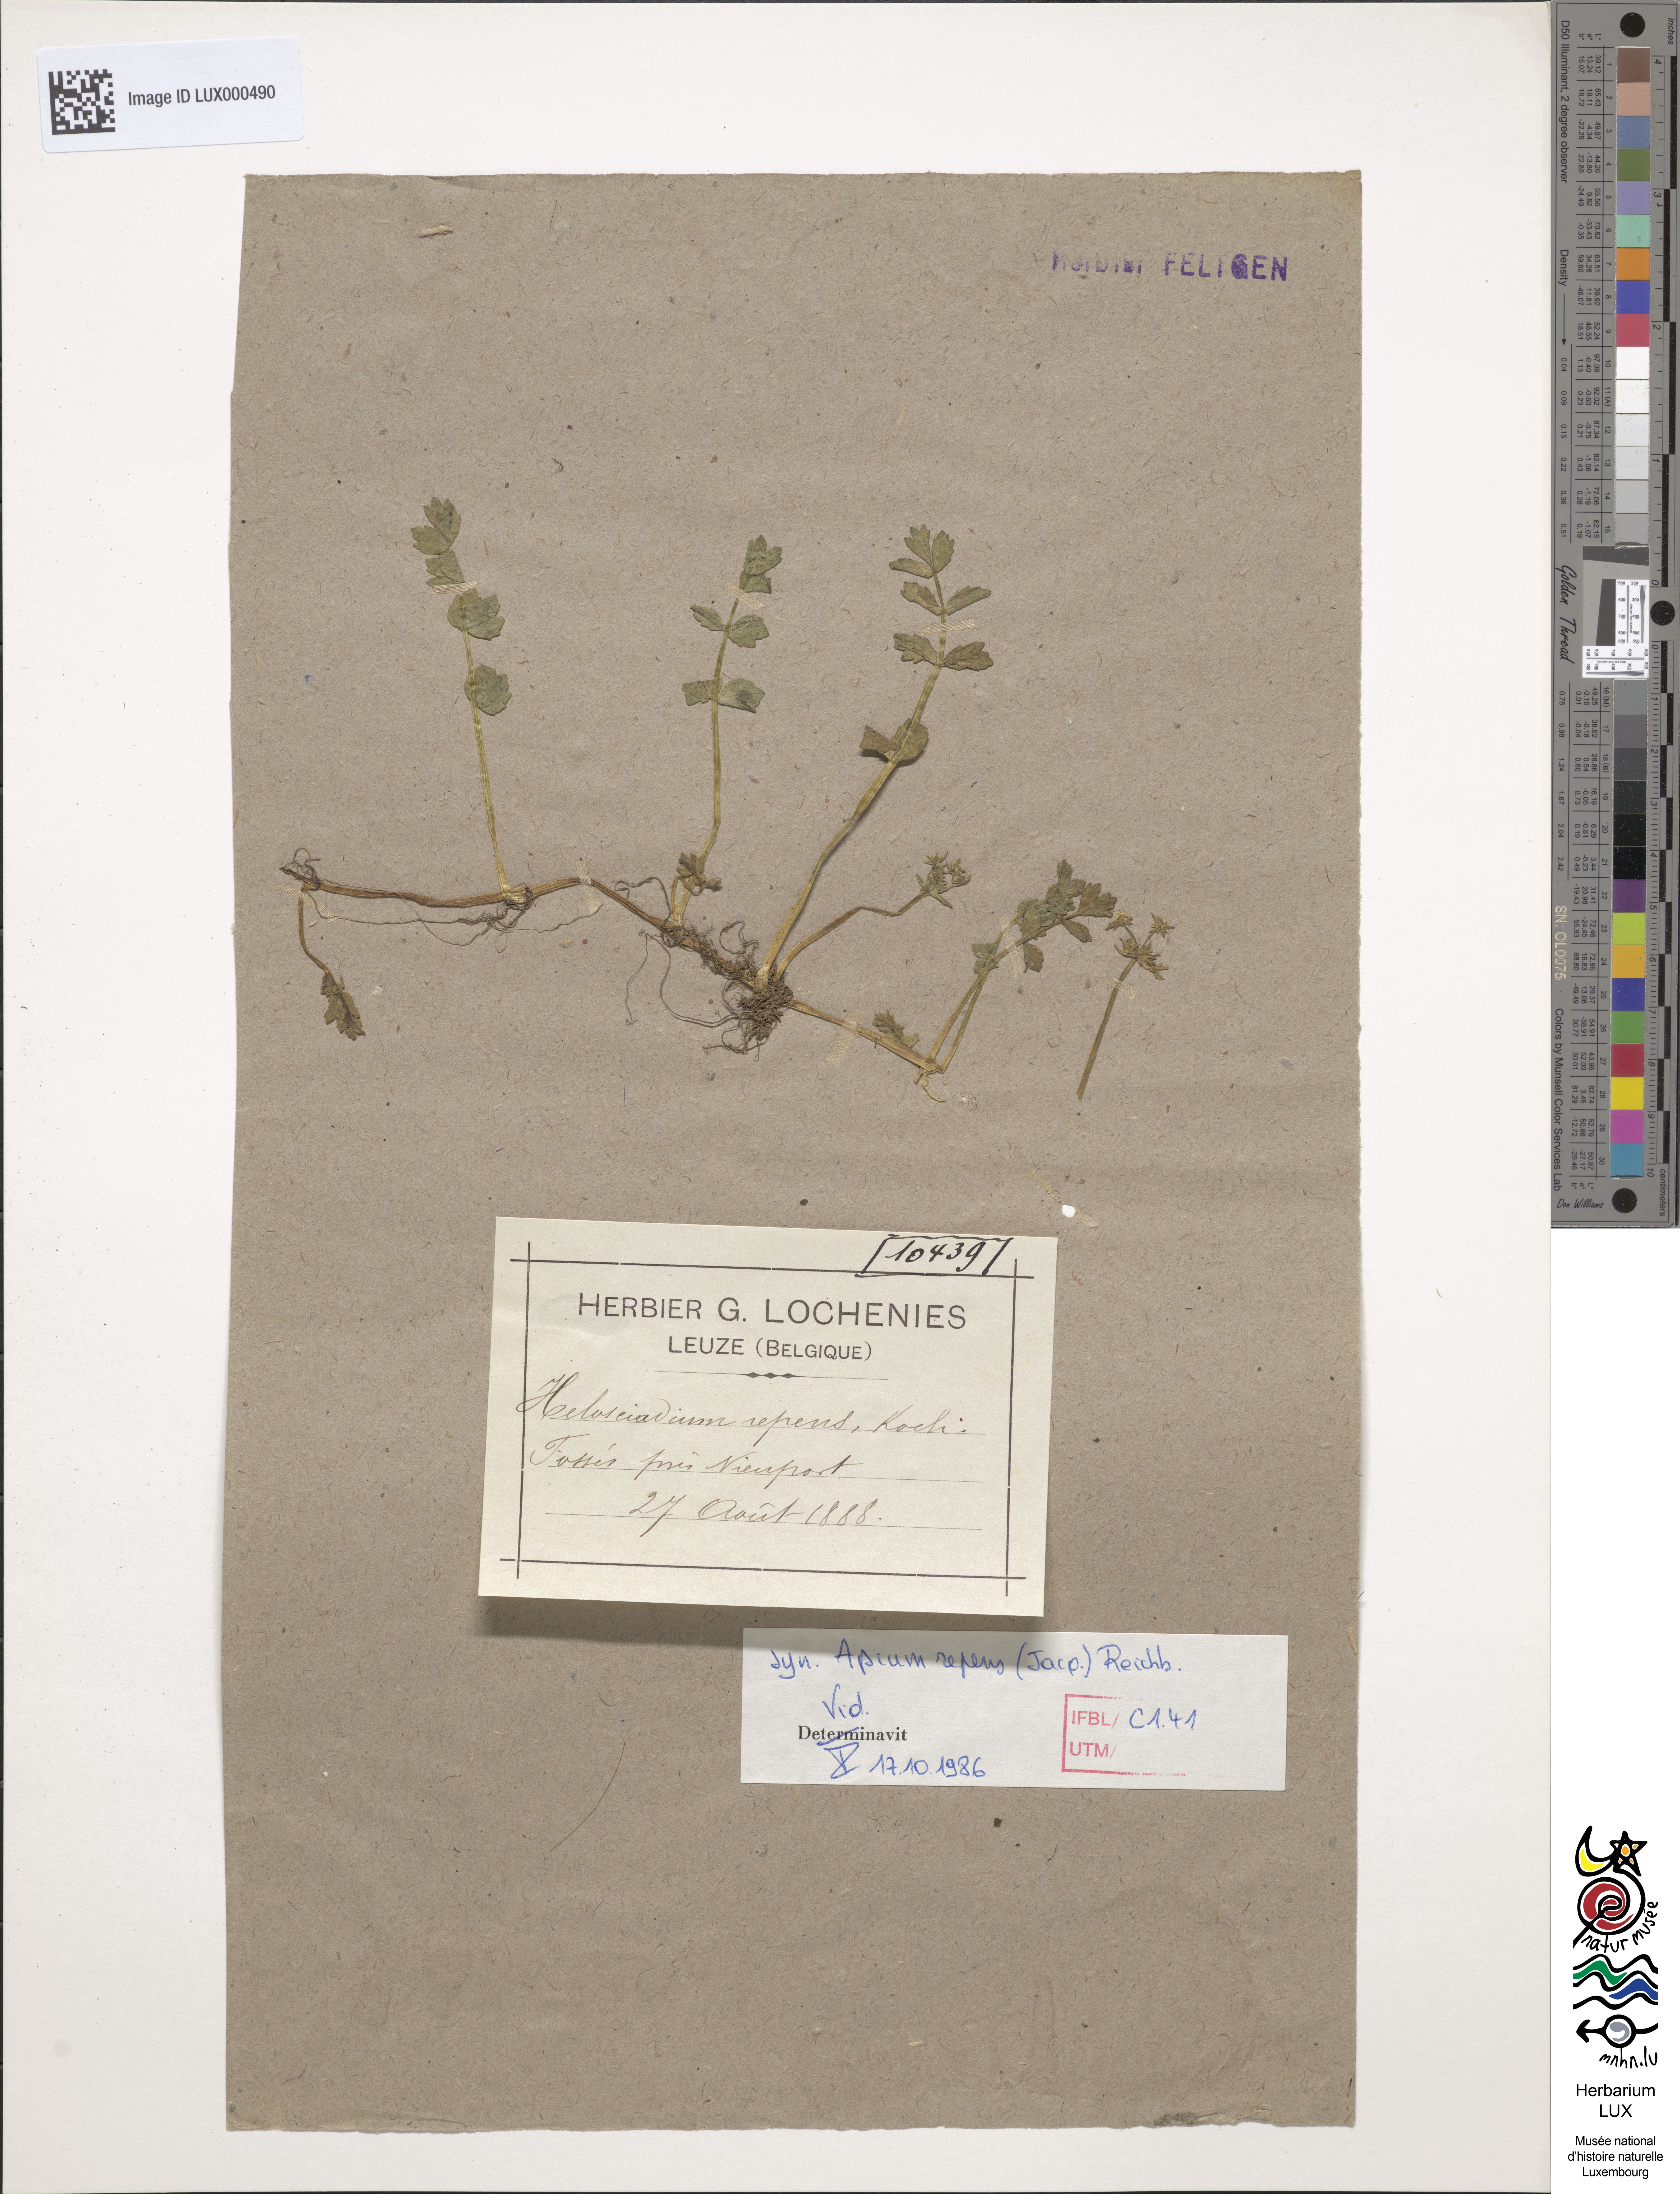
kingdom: Plantae
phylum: Tracheophyta
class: Magnoliopsida
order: Apiales
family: Apiaceae
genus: Helosciadium
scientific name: Helosciadium repens
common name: Creeping marshwort
